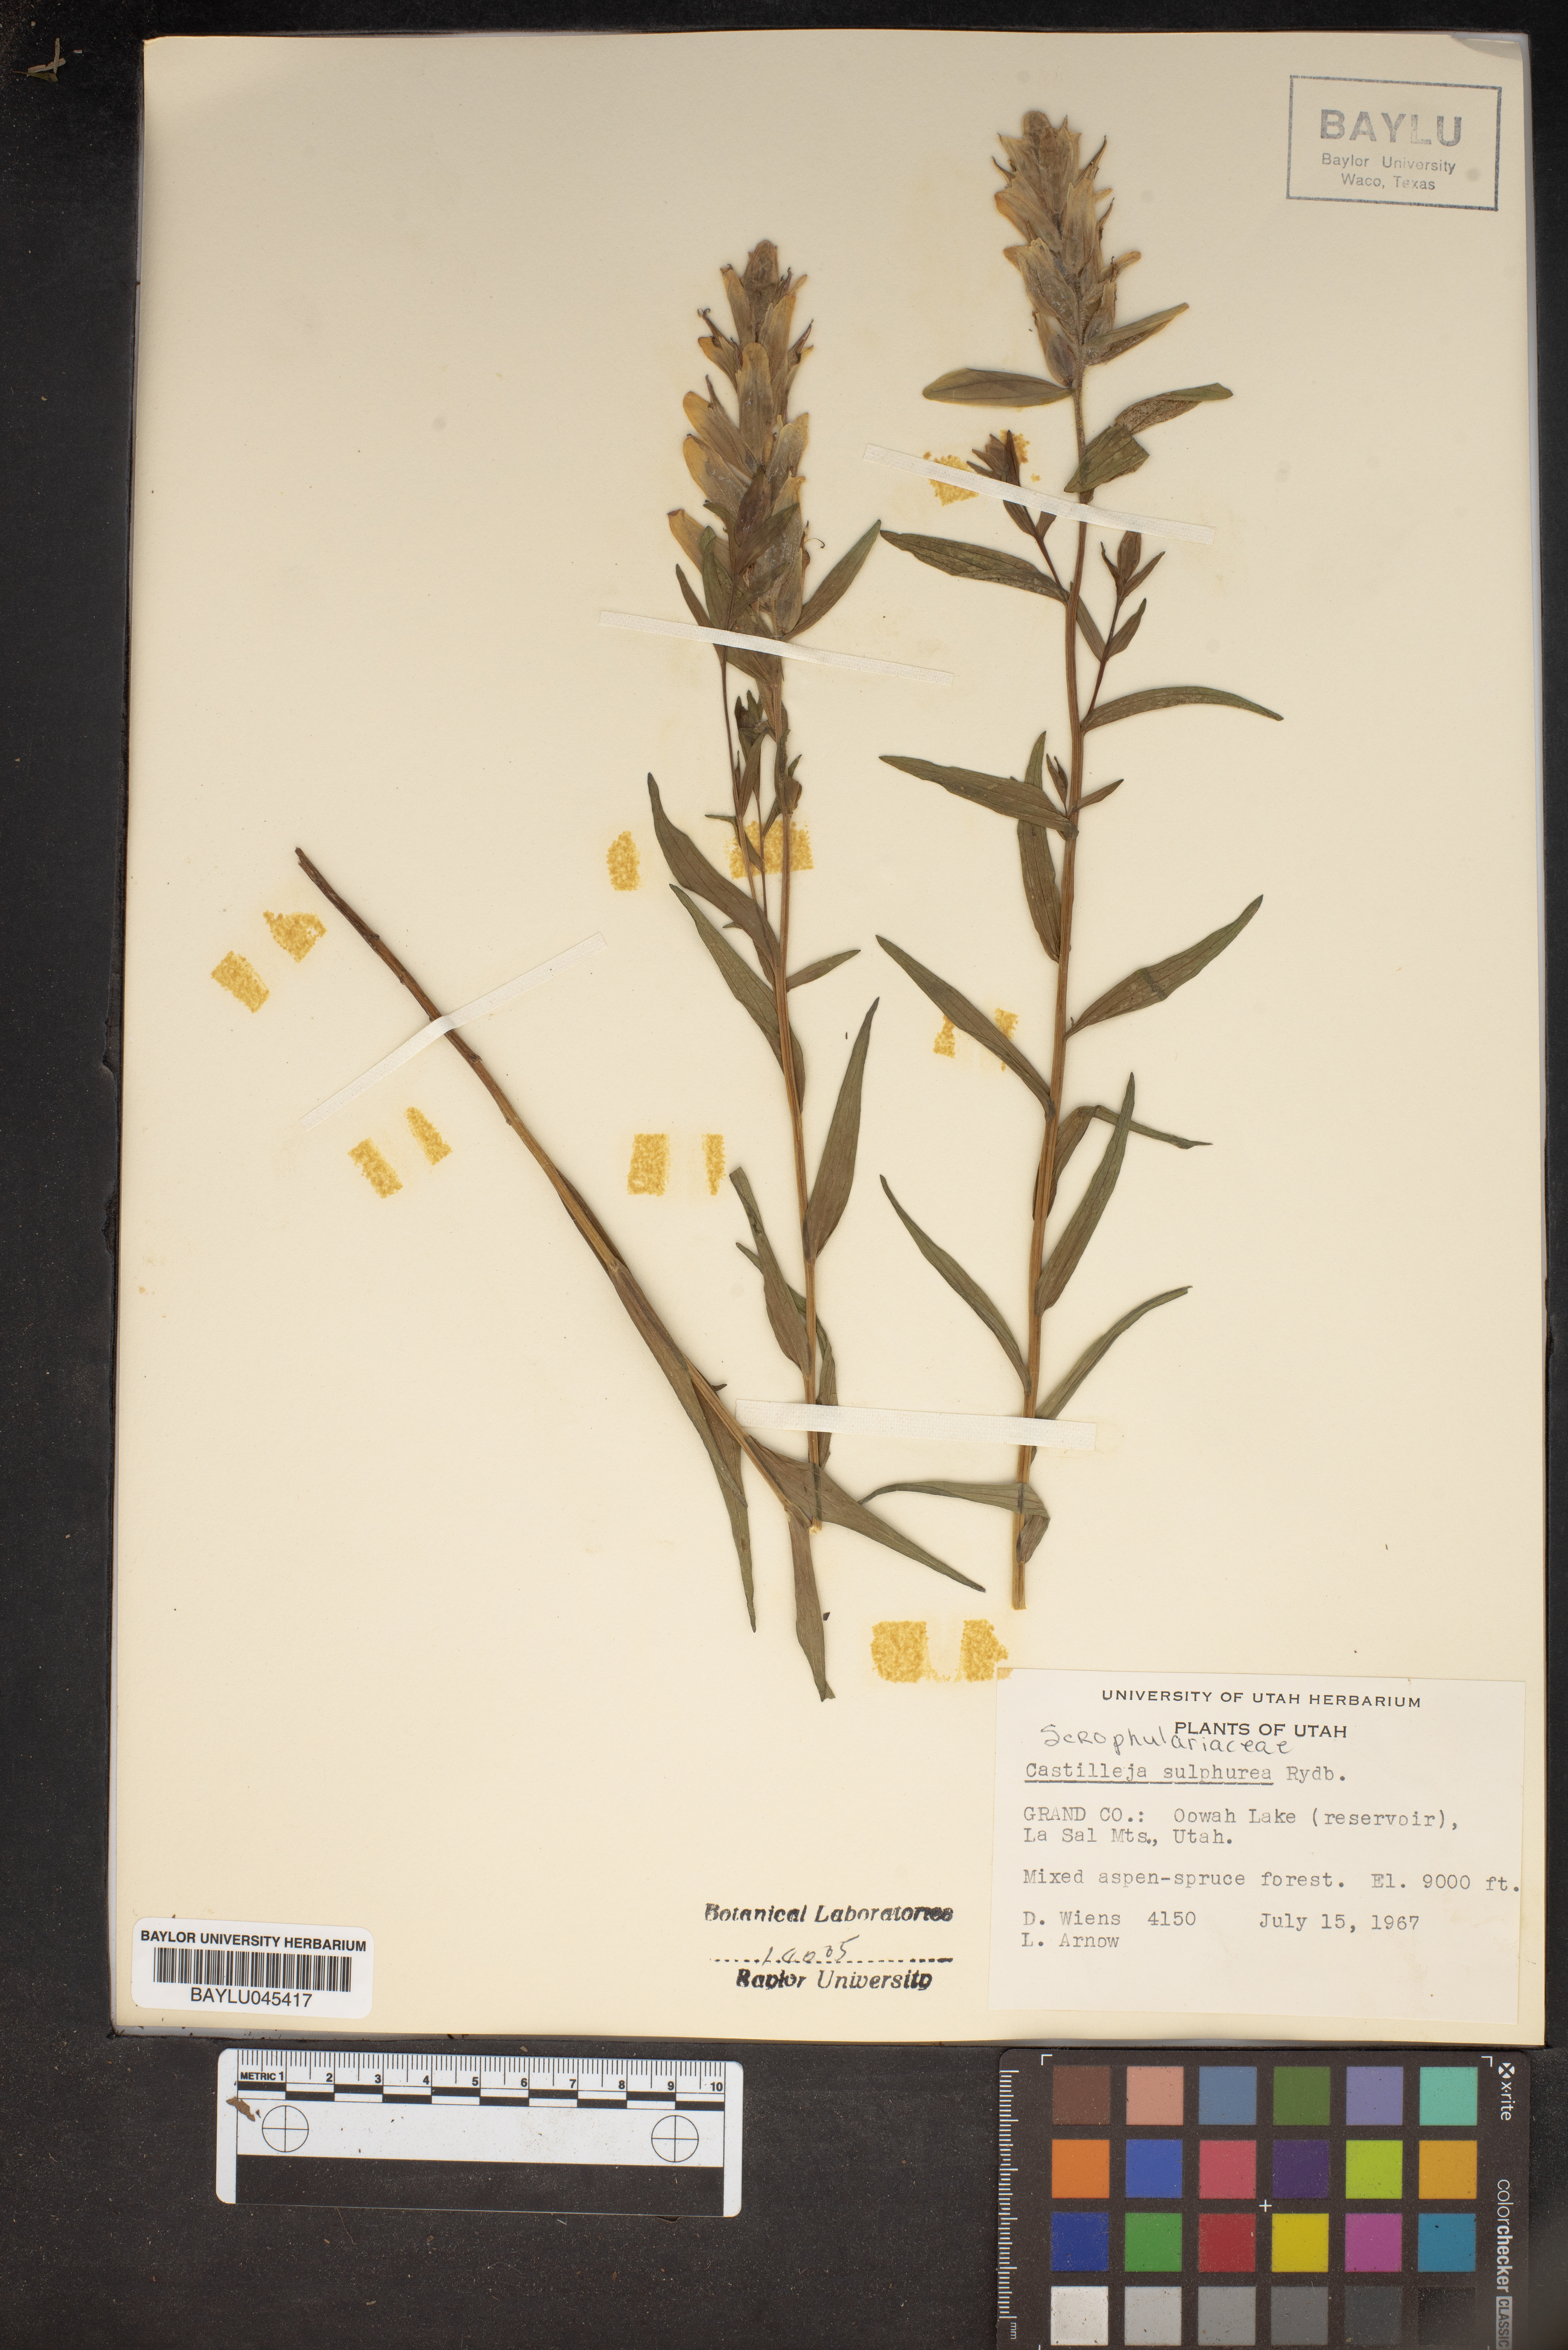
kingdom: Plantae
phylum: Tracheophyta
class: Magnoliopsida
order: Lamiales
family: Orobanchaceae
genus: Castilleja
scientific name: Castilleja septentrionalis
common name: Northeastern paintbrush
